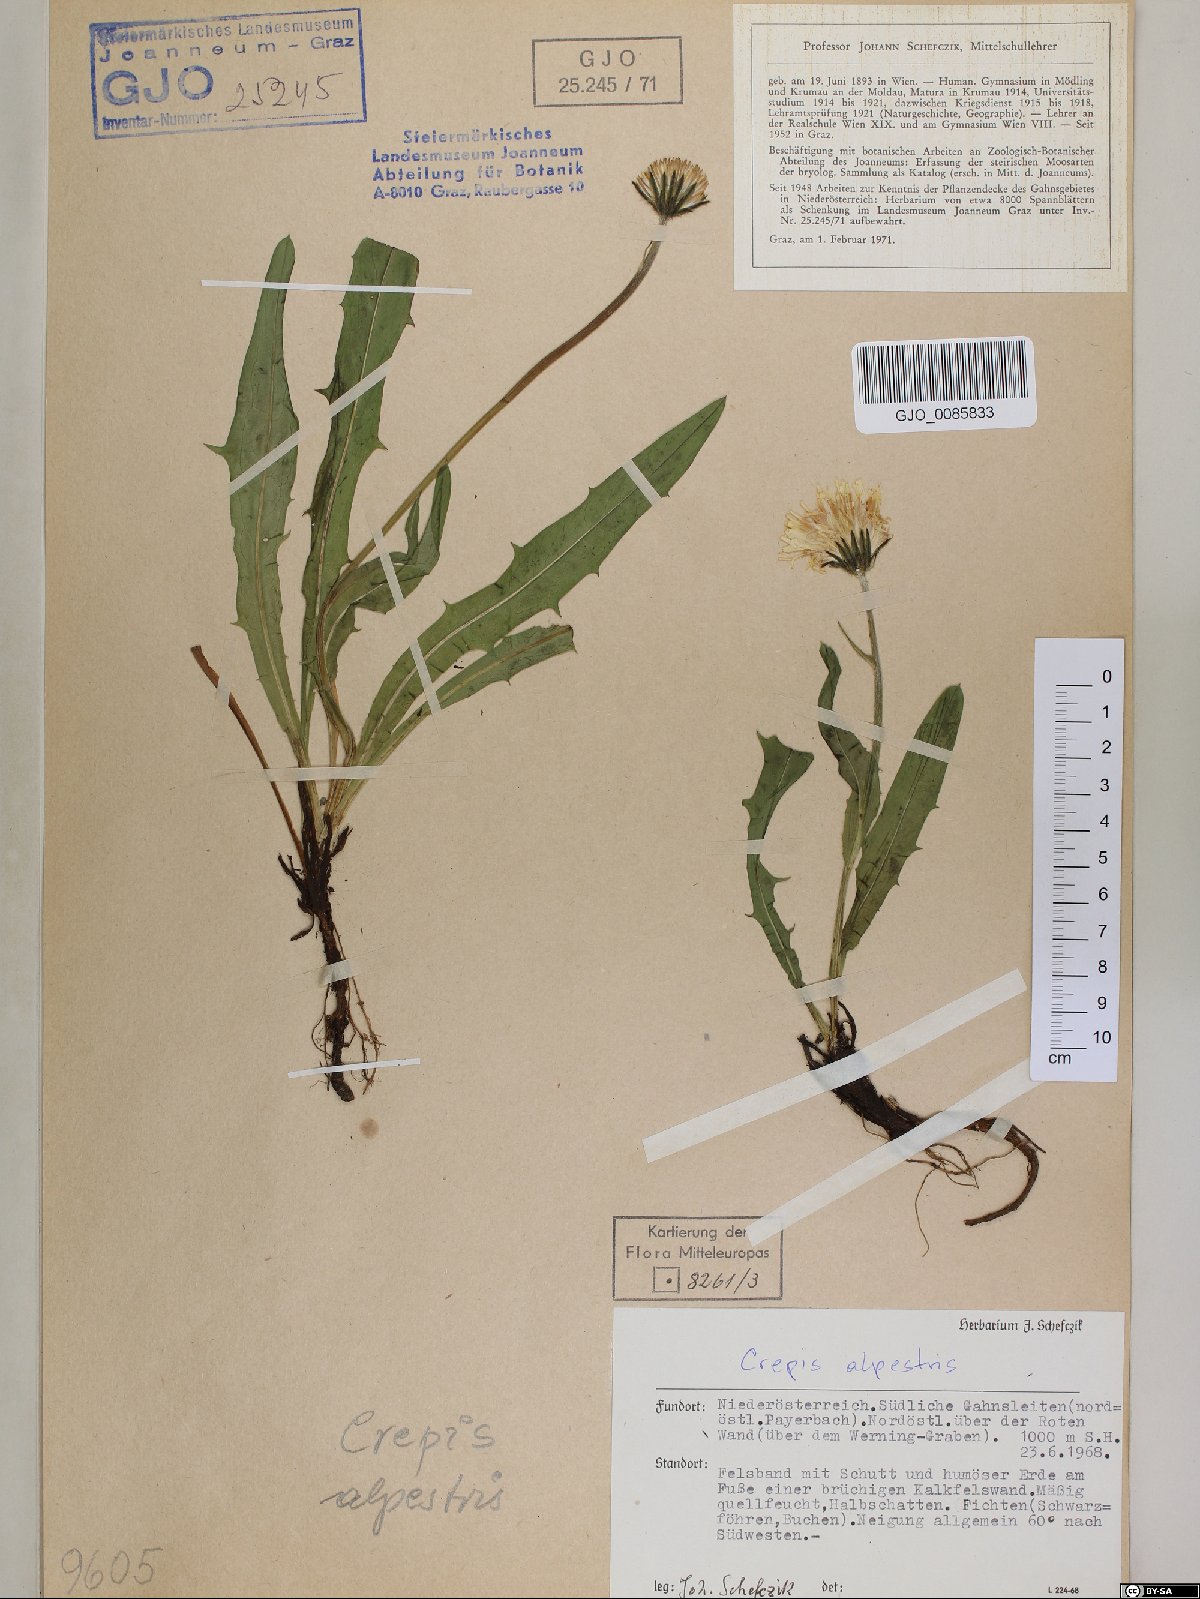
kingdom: Plantae
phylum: Tracheophyta
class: Magnoliopsida
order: Asterales
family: Asteraceae
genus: Crepis
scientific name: Crepis alpestris
